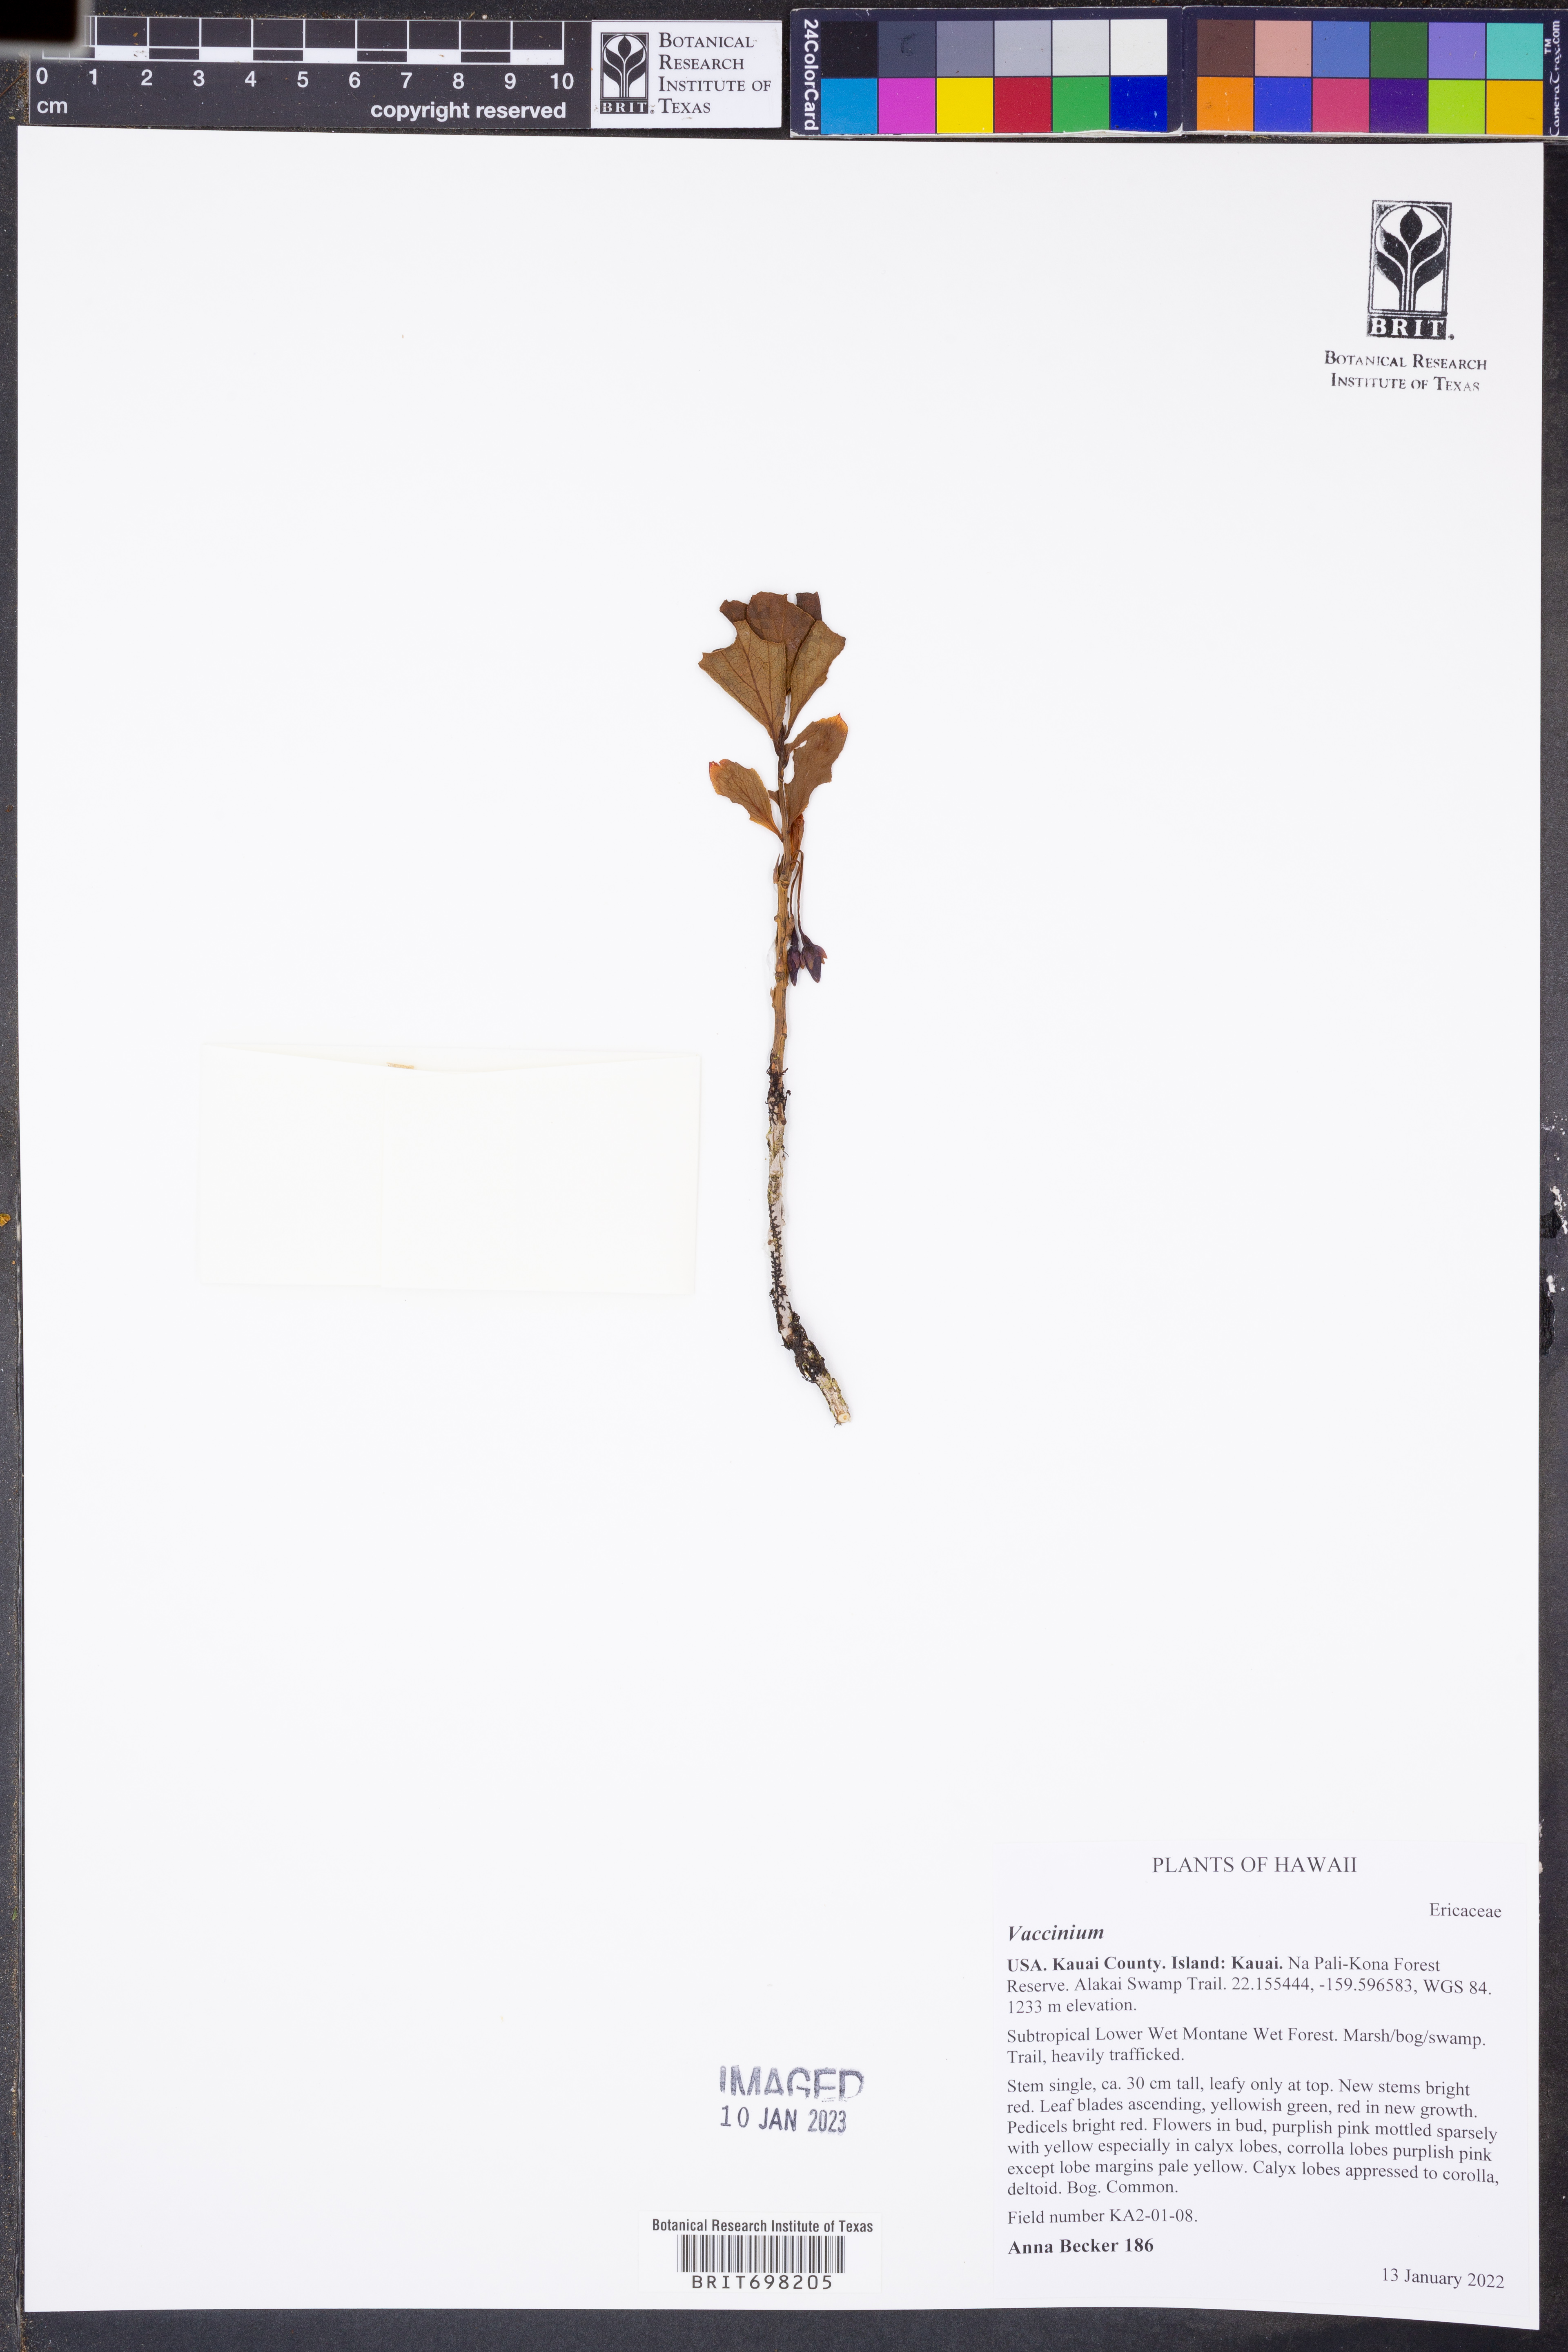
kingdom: Plantae
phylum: Tracheophyta
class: Magnoliopsida
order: Ericales
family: Ericaceae
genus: Vaccinium
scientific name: Vaccinium
